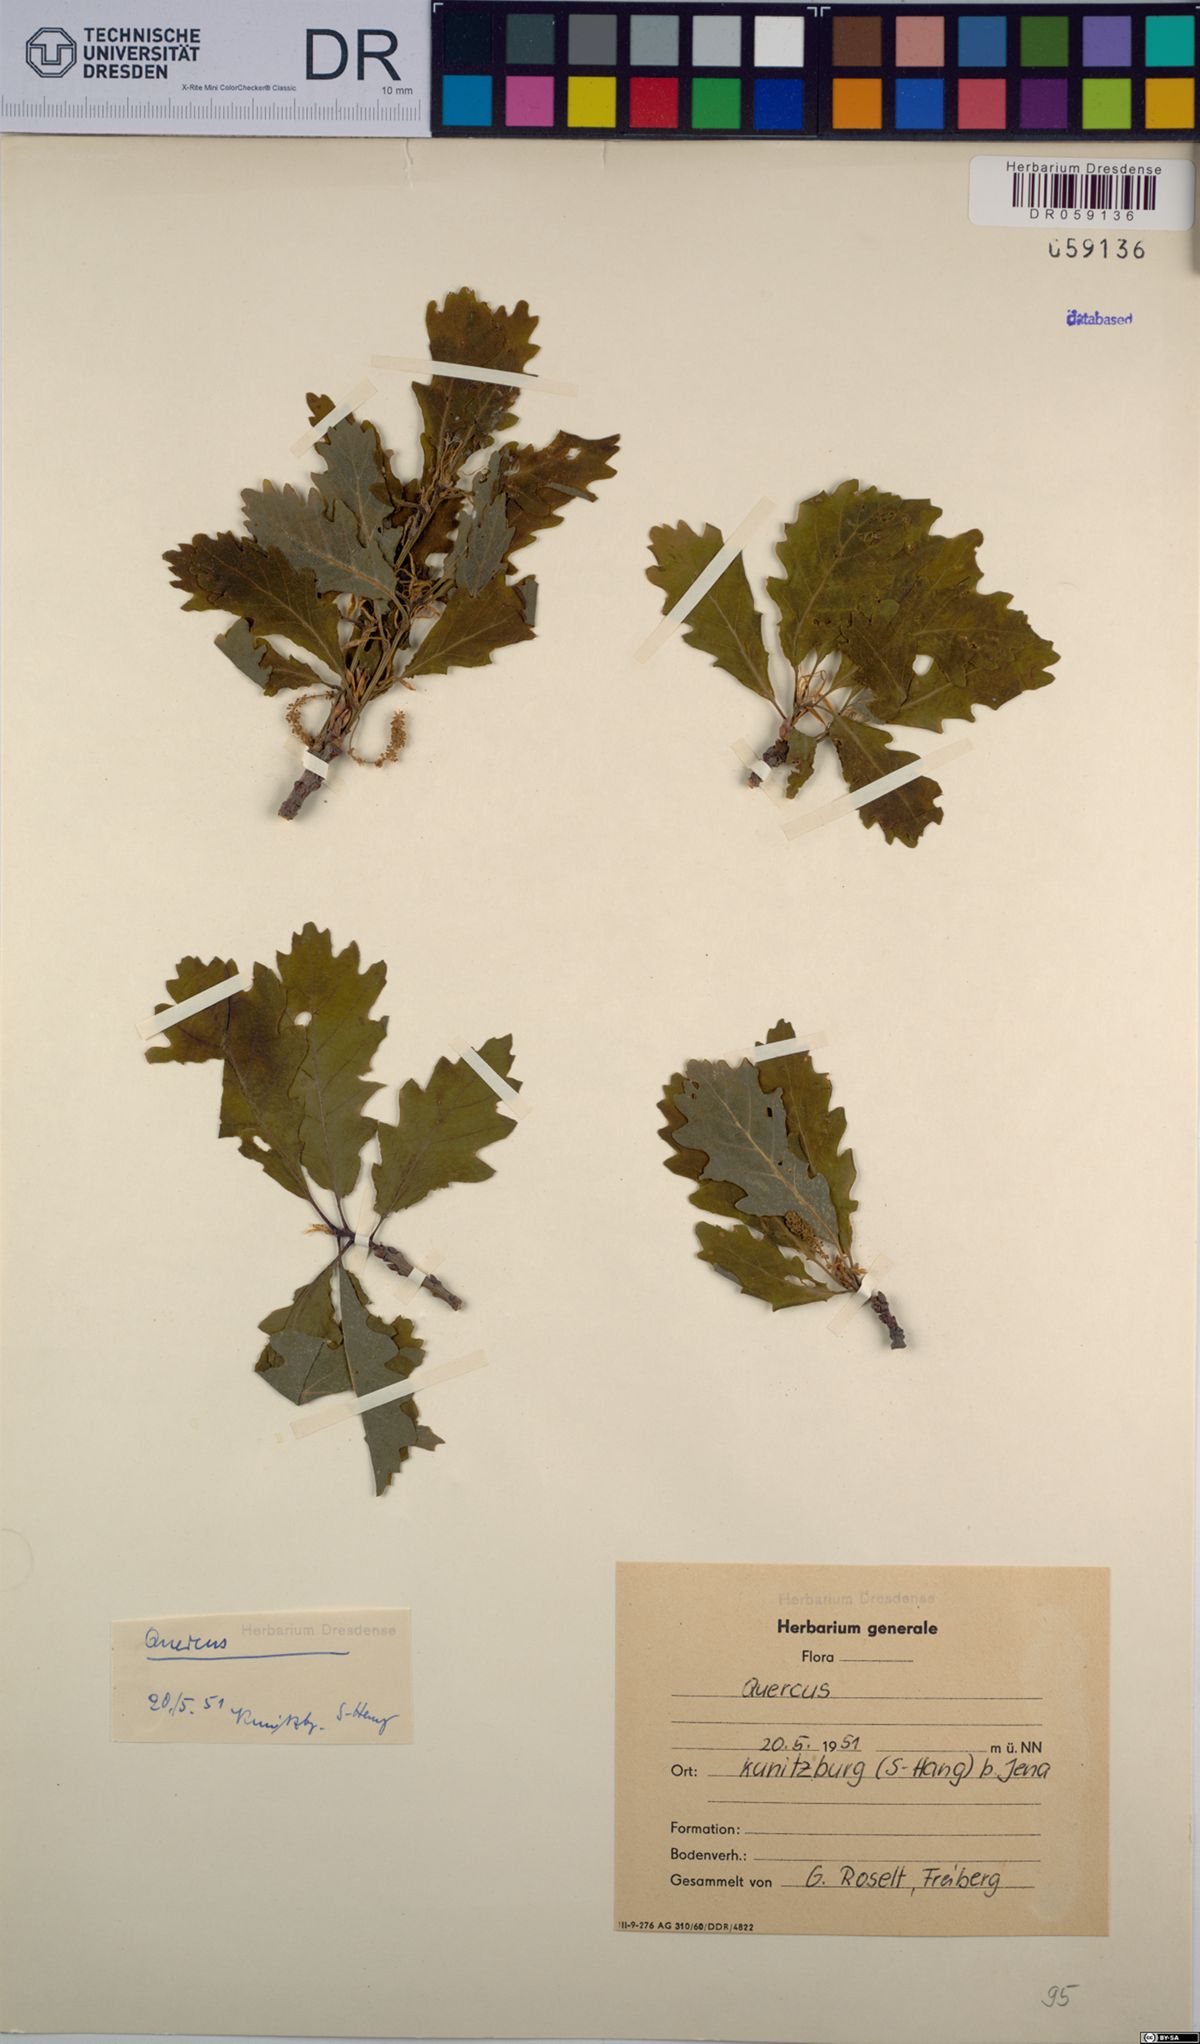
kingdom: Plantae
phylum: Tracheophyta
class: Magnoliopsida
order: Fagales
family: Fagaceae
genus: Quercus
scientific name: Quercus
